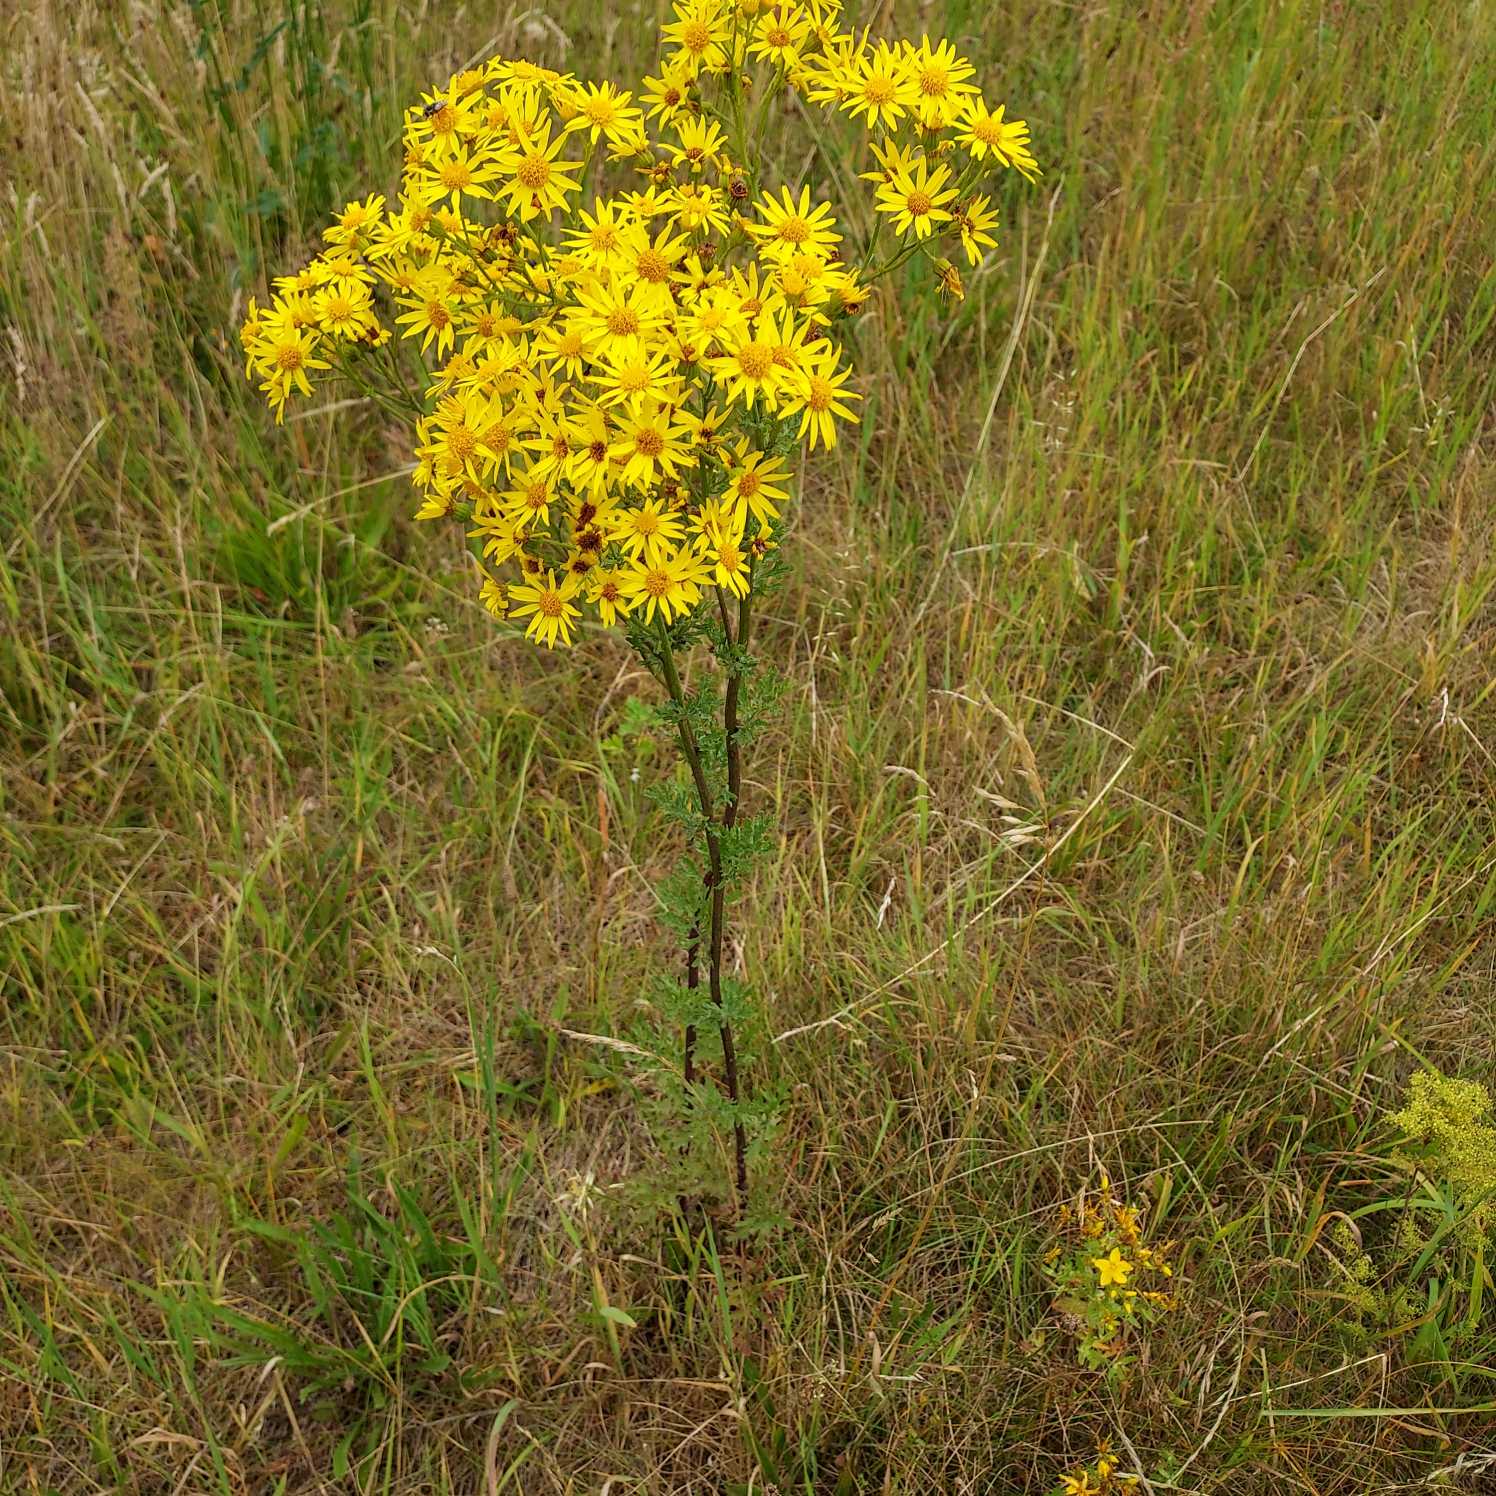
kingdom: Plantae
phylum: Tracheophyta
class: Magnoliopsida
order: Asterales
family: Asteraceae
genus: Jacobaea
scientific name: Jacobaea vulgaris
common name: Eng-brandbæger
